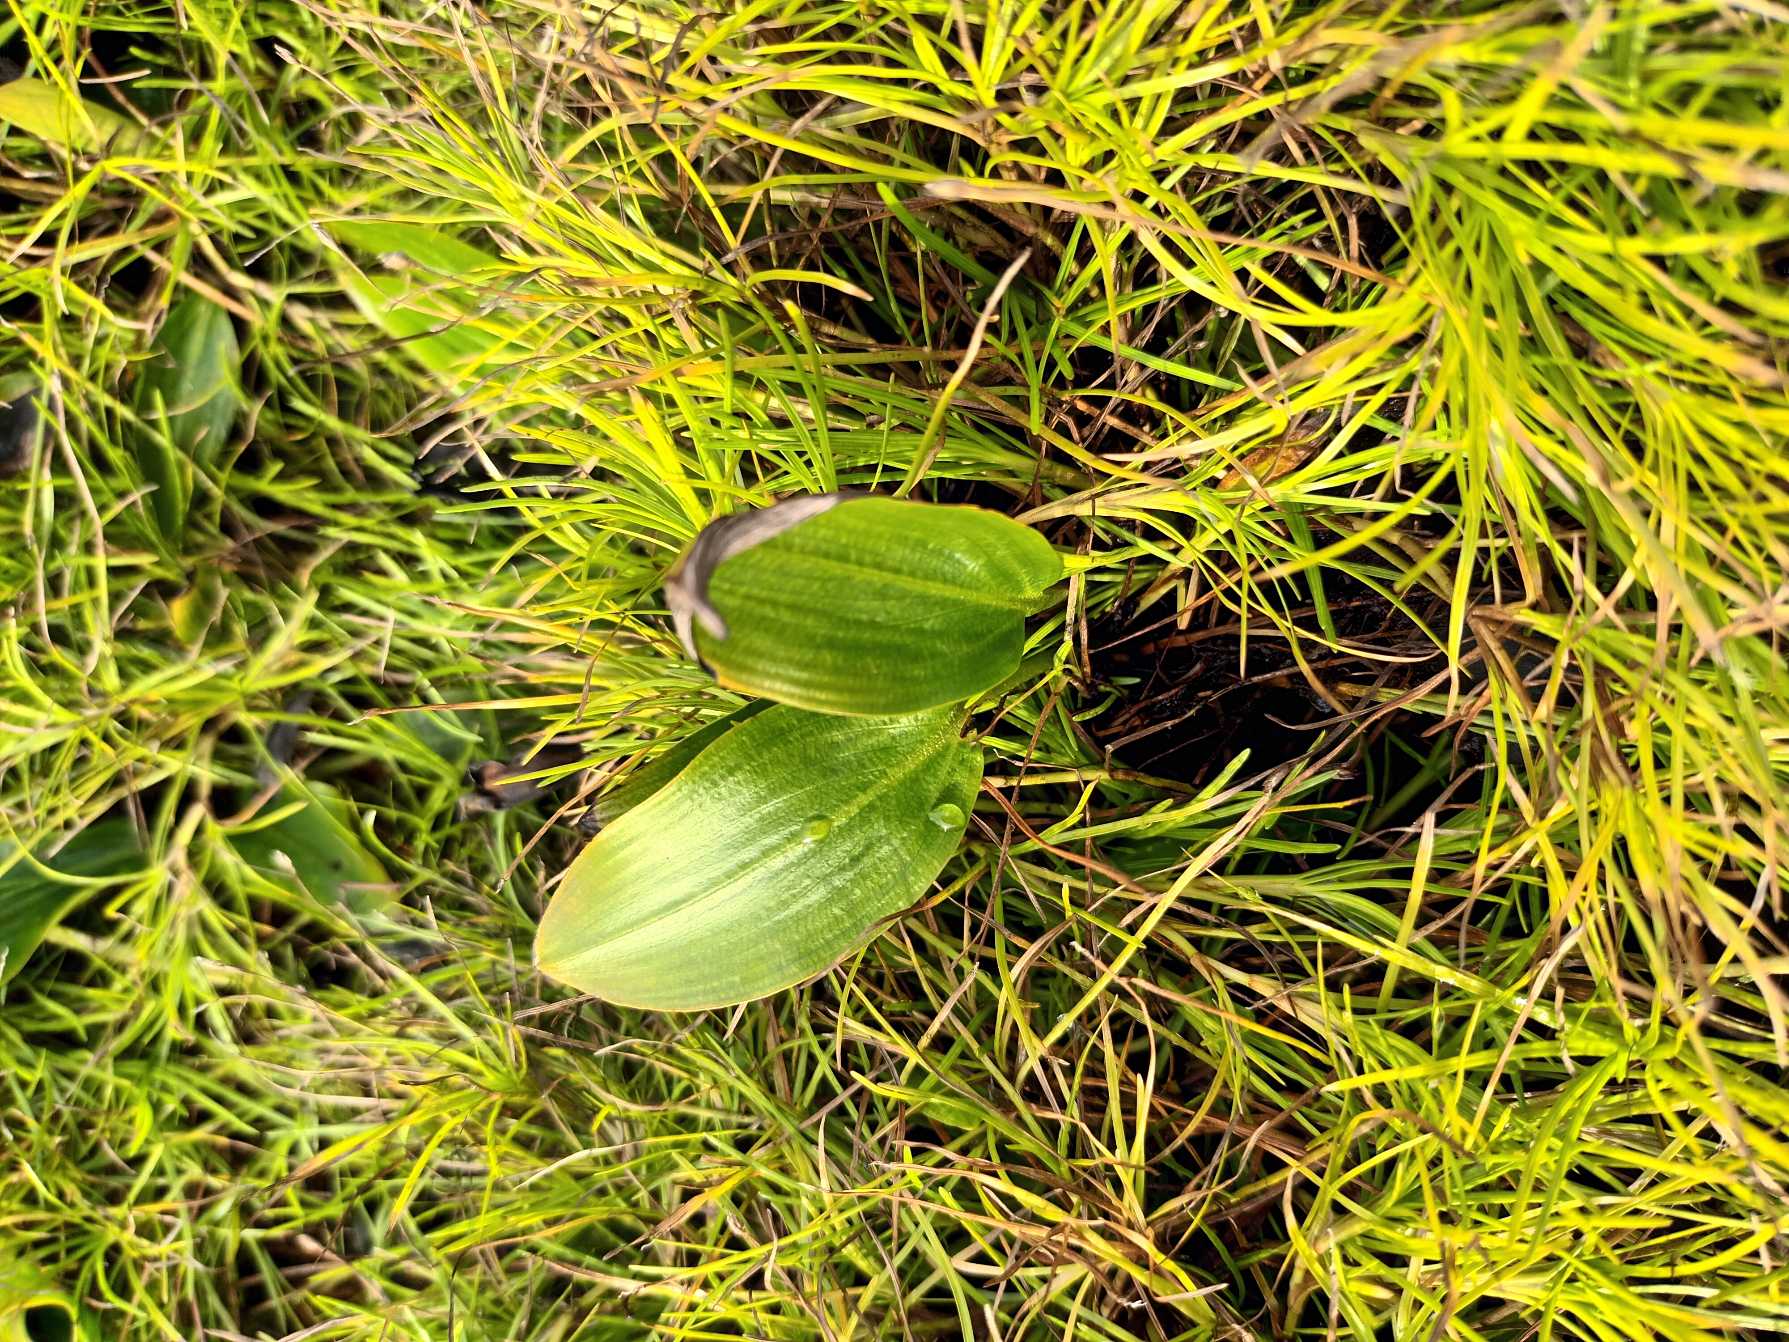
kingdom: Plantae
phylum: Tracheophyta
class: Liliopsida
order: Alismatales
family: Potamogetonaceae
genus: Potamogeton
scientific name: Potamogeton polygonifolius
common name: Aflangbladet vandaks
